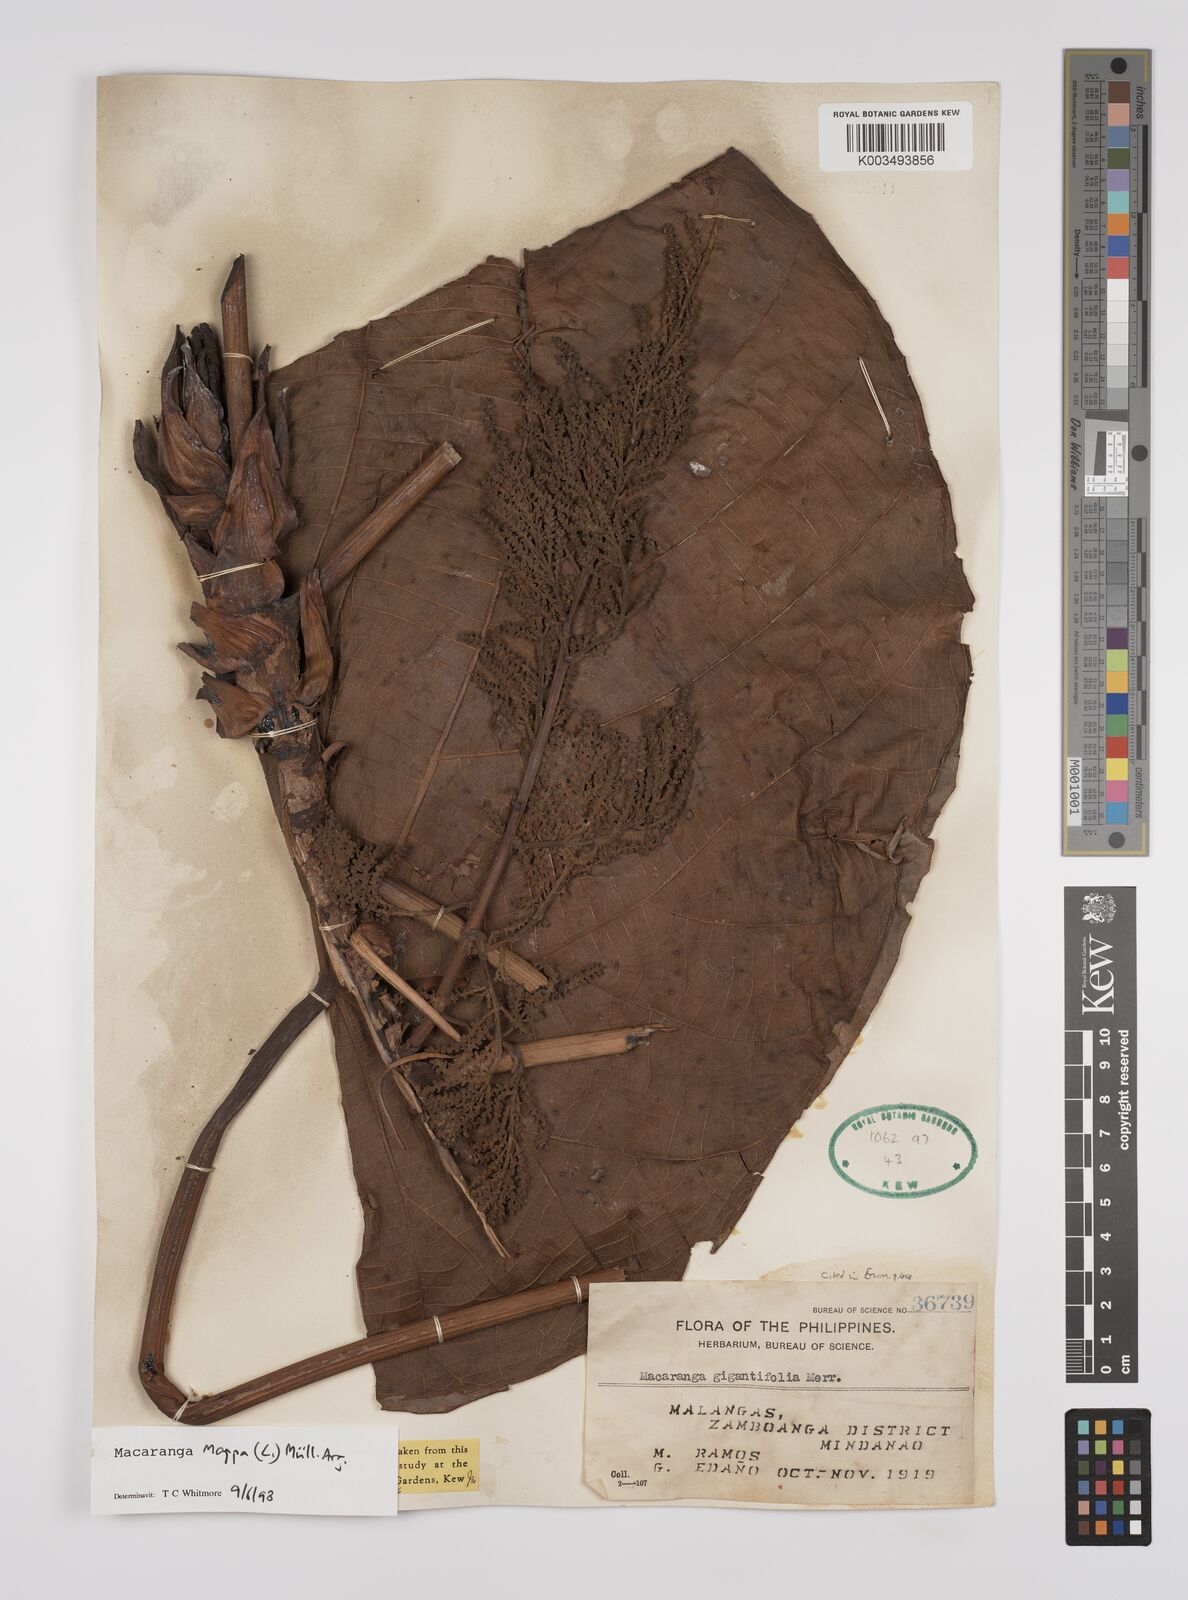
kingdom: Plantae
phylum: Tracheophyta
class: Magnoliopsida
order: Malpighiales
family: Euphorbiaceae
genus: Macaranga
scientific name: Macaranga grandifolia
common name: Coraltree
